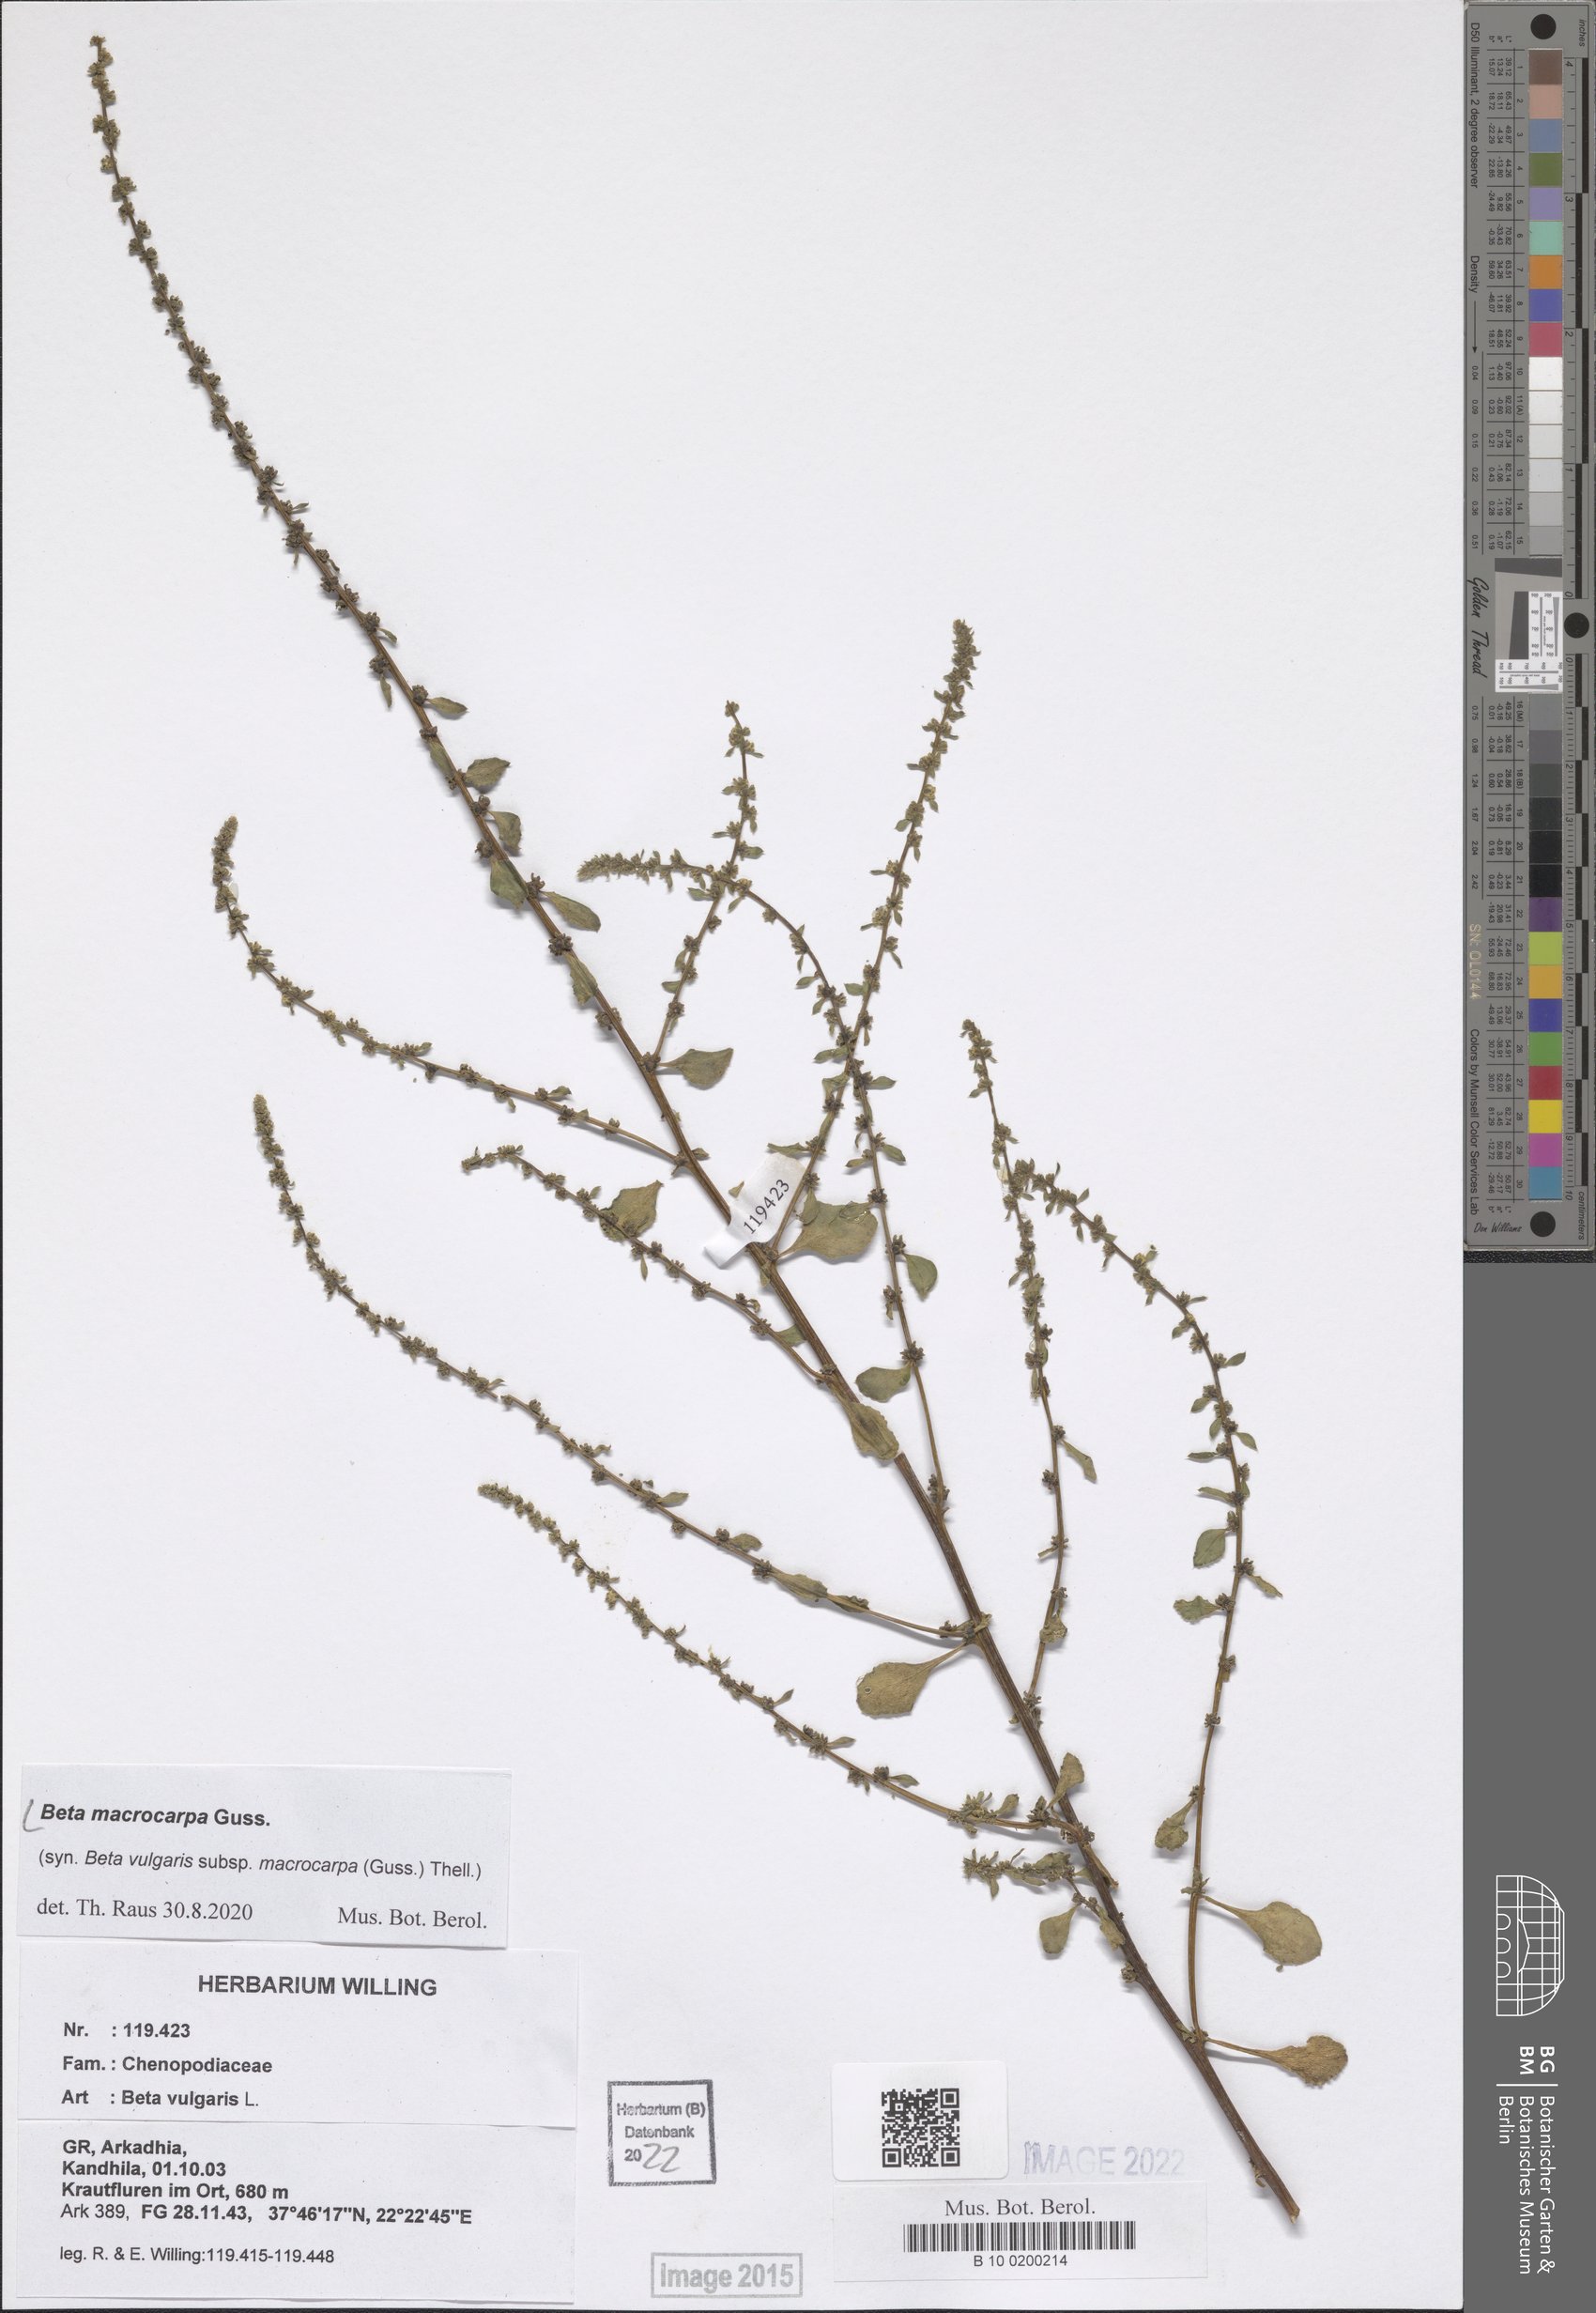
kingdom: Plantae
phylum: Tracheophyta
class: Magnoliopsida
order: Caryophyllales
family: Amaranthaceae
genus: Beta
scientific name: Beta macrocarpa
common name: Beet
